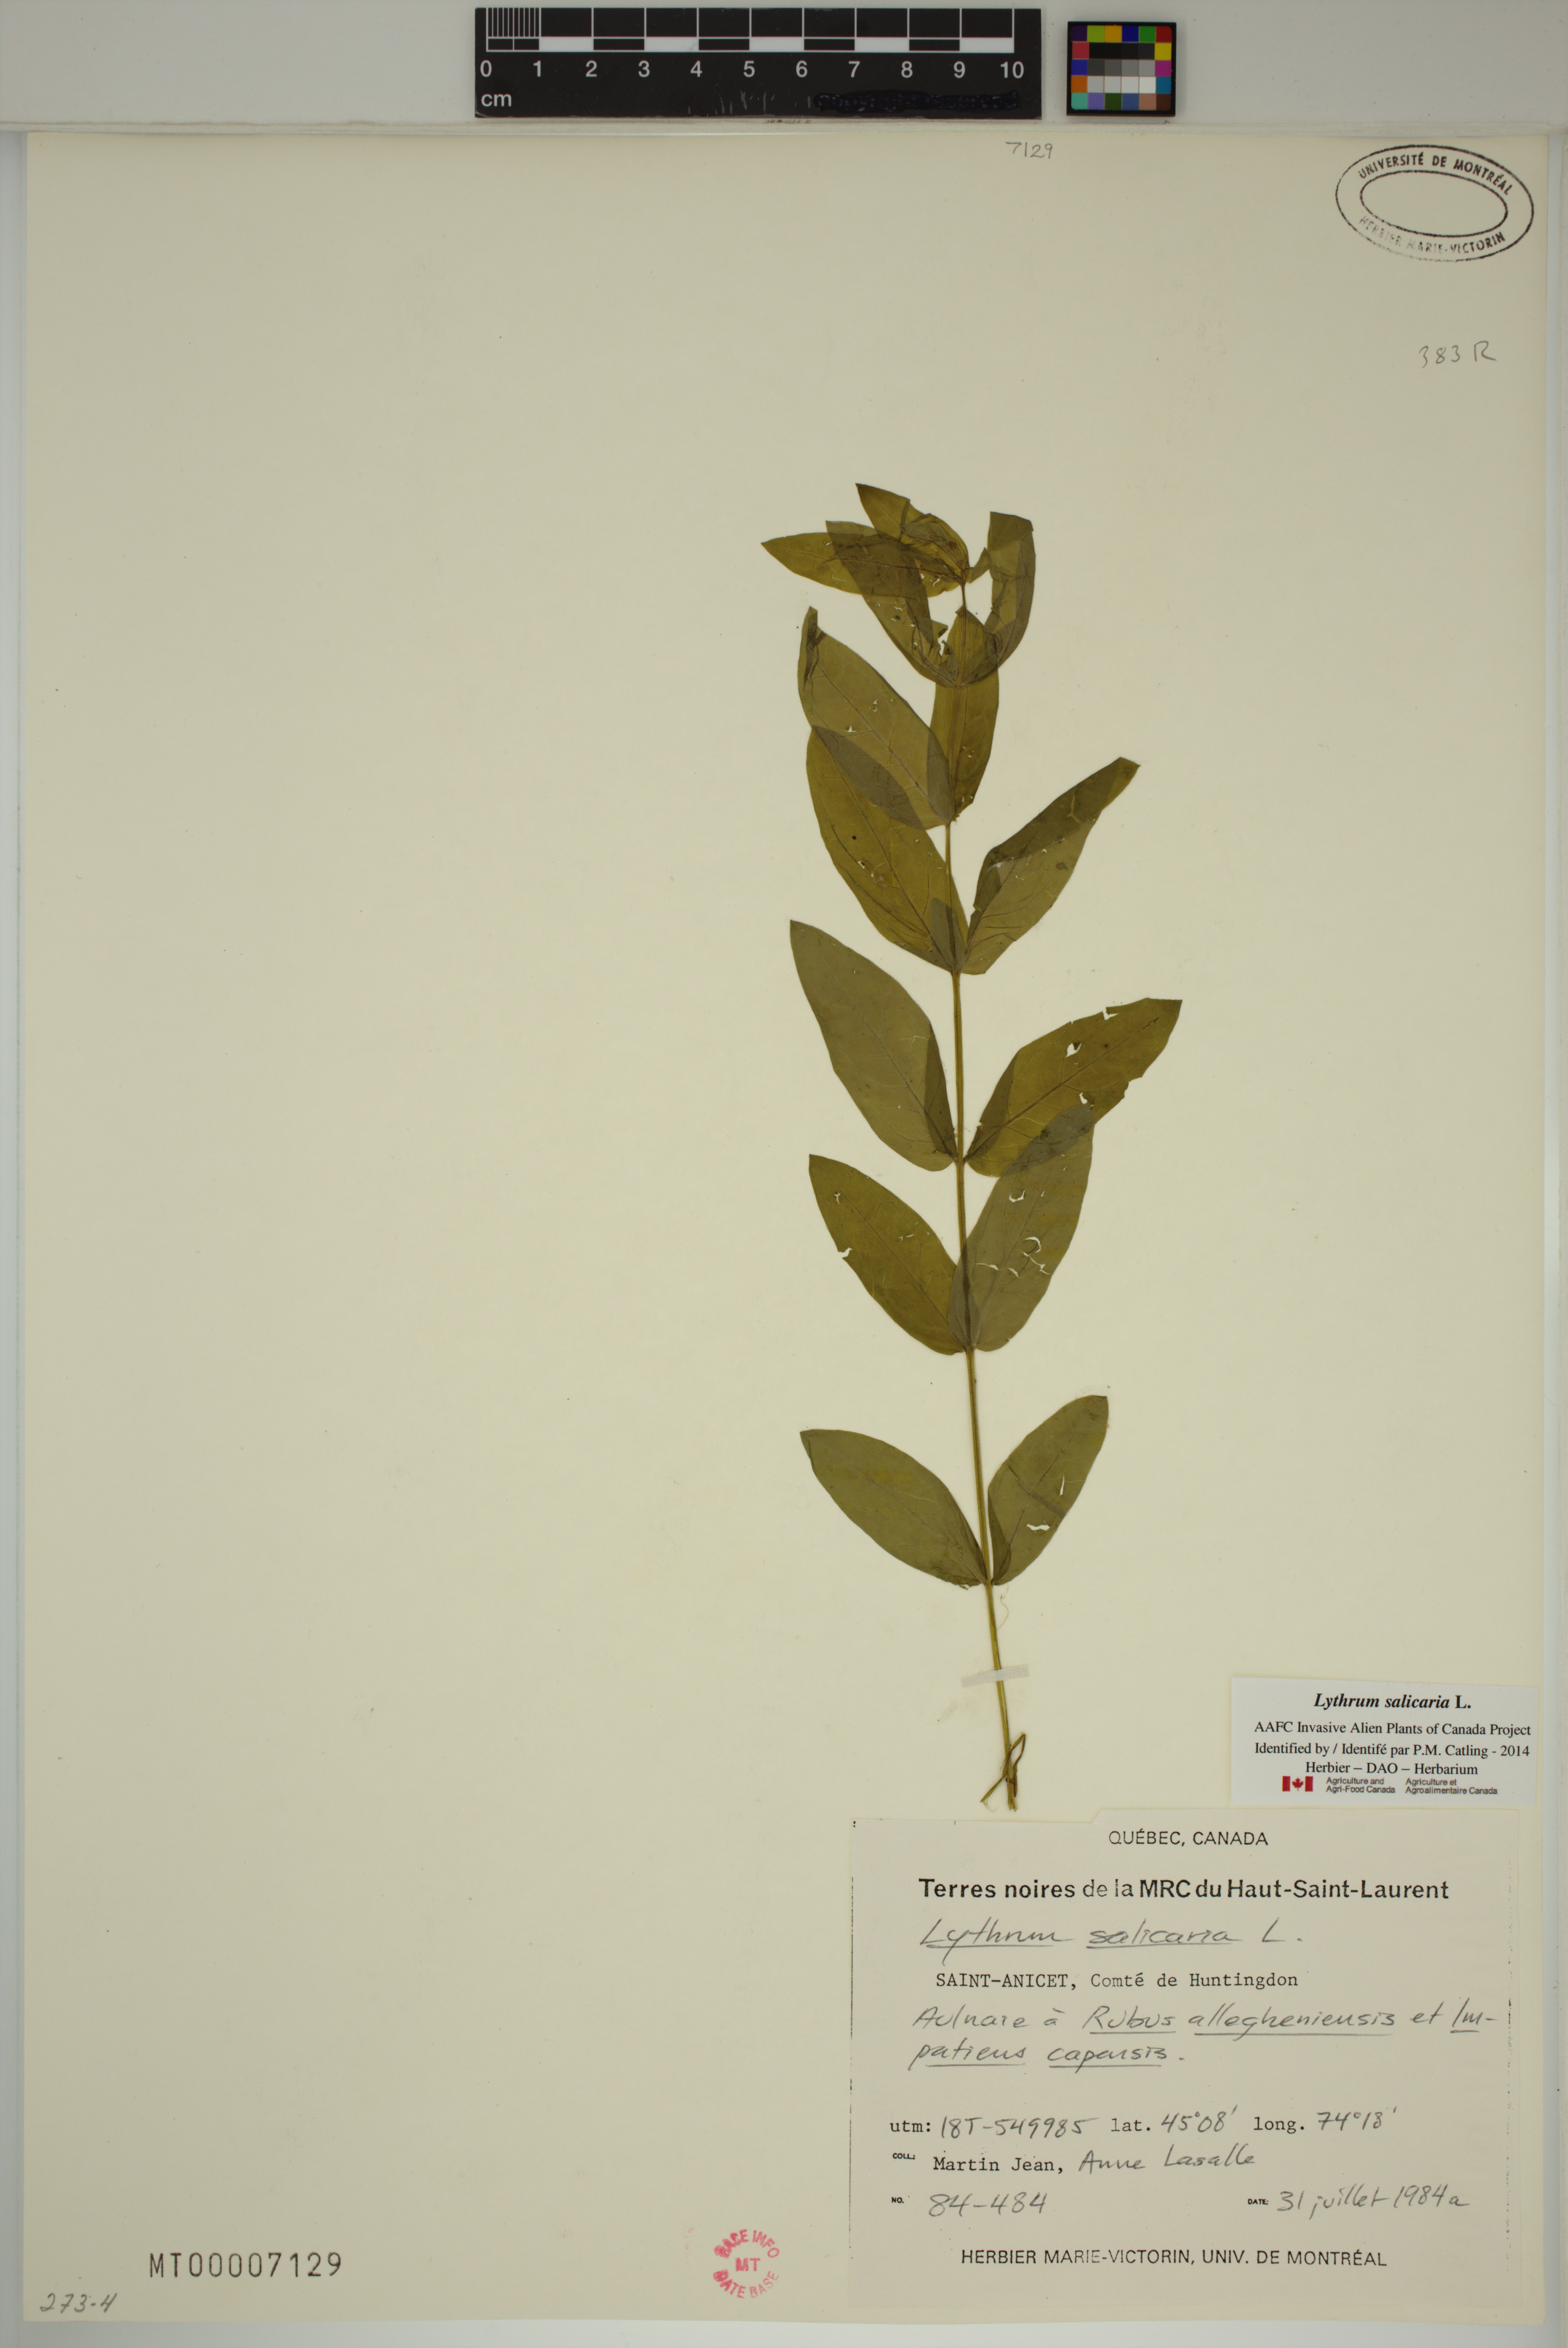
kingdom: Plantae
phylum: Tracheophyta
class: Magnoliopsida
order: Myrtales
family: Lythraceae
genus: Lythrum
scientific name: Lythrum salicaria
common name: Purple loosestrife
